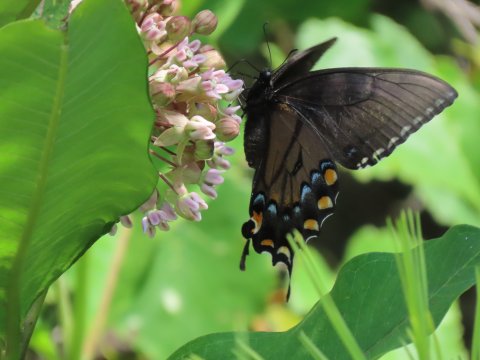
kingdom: Animalia
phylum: Arthropoda
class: Insecta
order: Lepidoptera
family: Papilionidae
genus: Pterourus
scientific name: Pterourus glaucus
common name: Eastern Tiger Swallowtail
